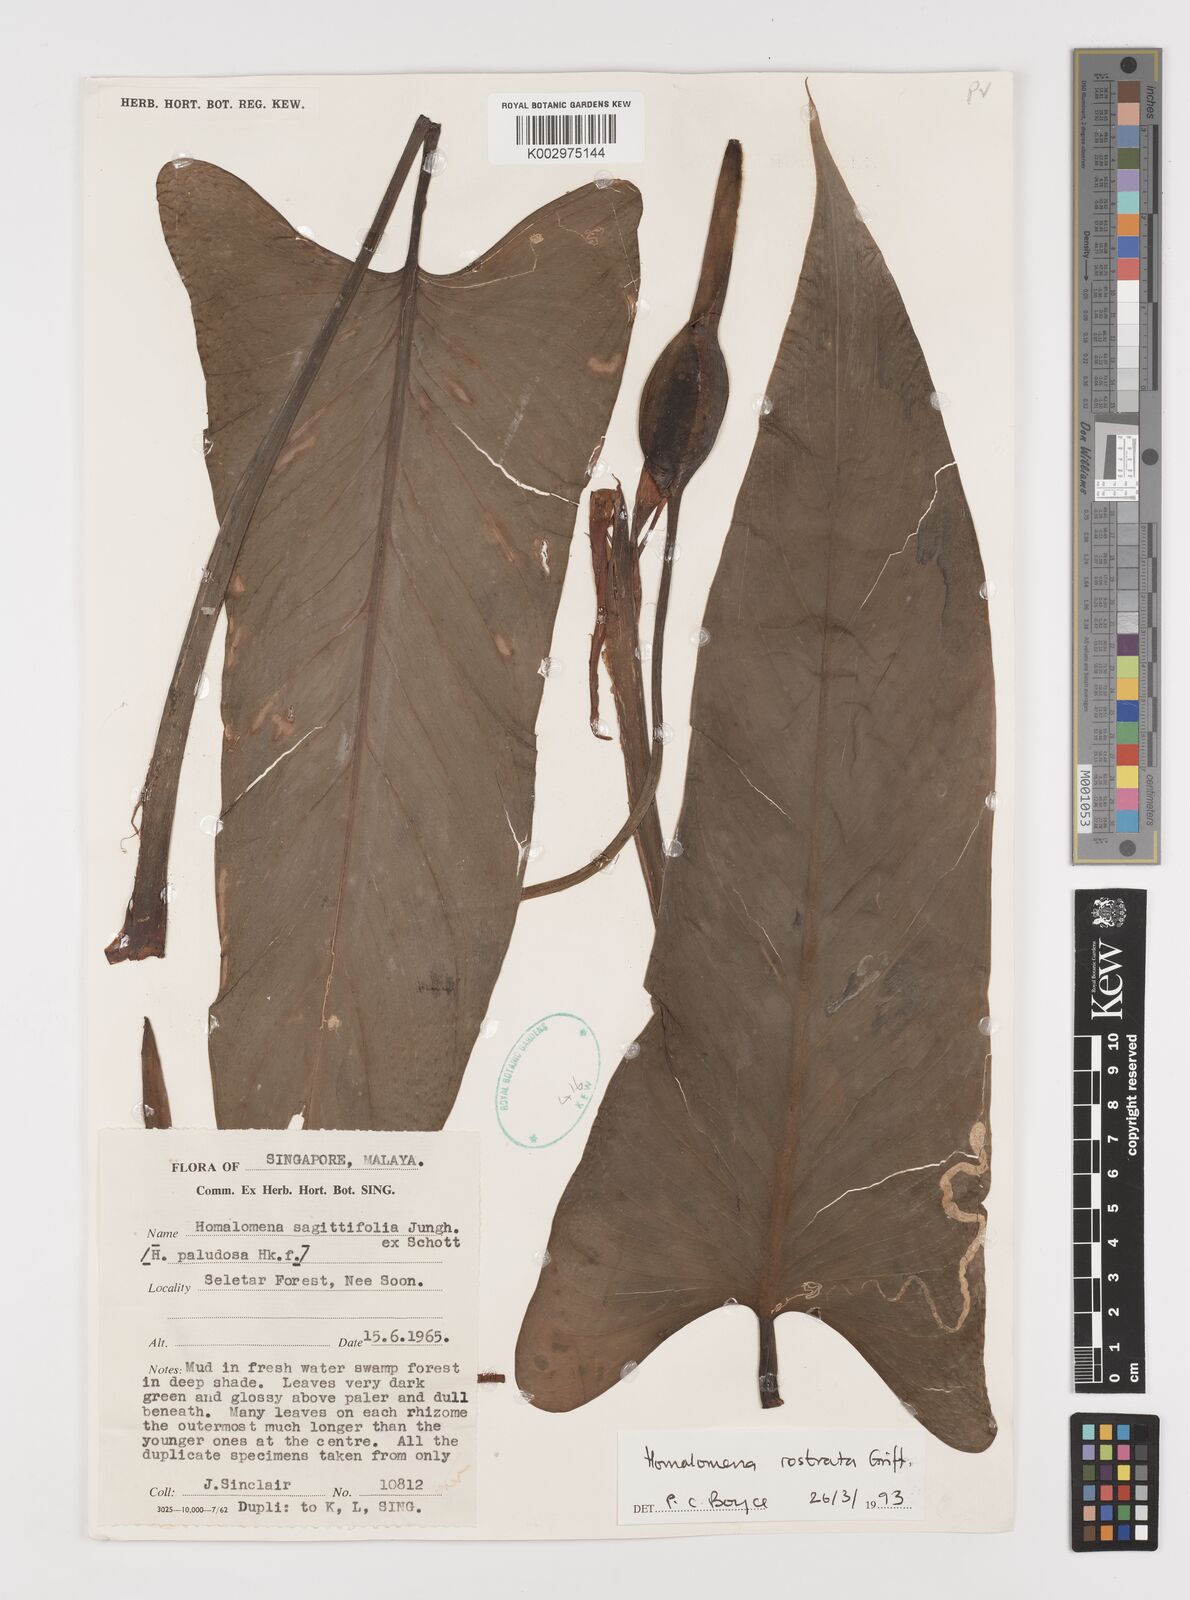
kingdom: Plantae
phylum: Tracheophyta
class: Liliopsida
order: Alismatales
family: Araceae
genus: Homalomena
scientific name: Homalomena rostrata
